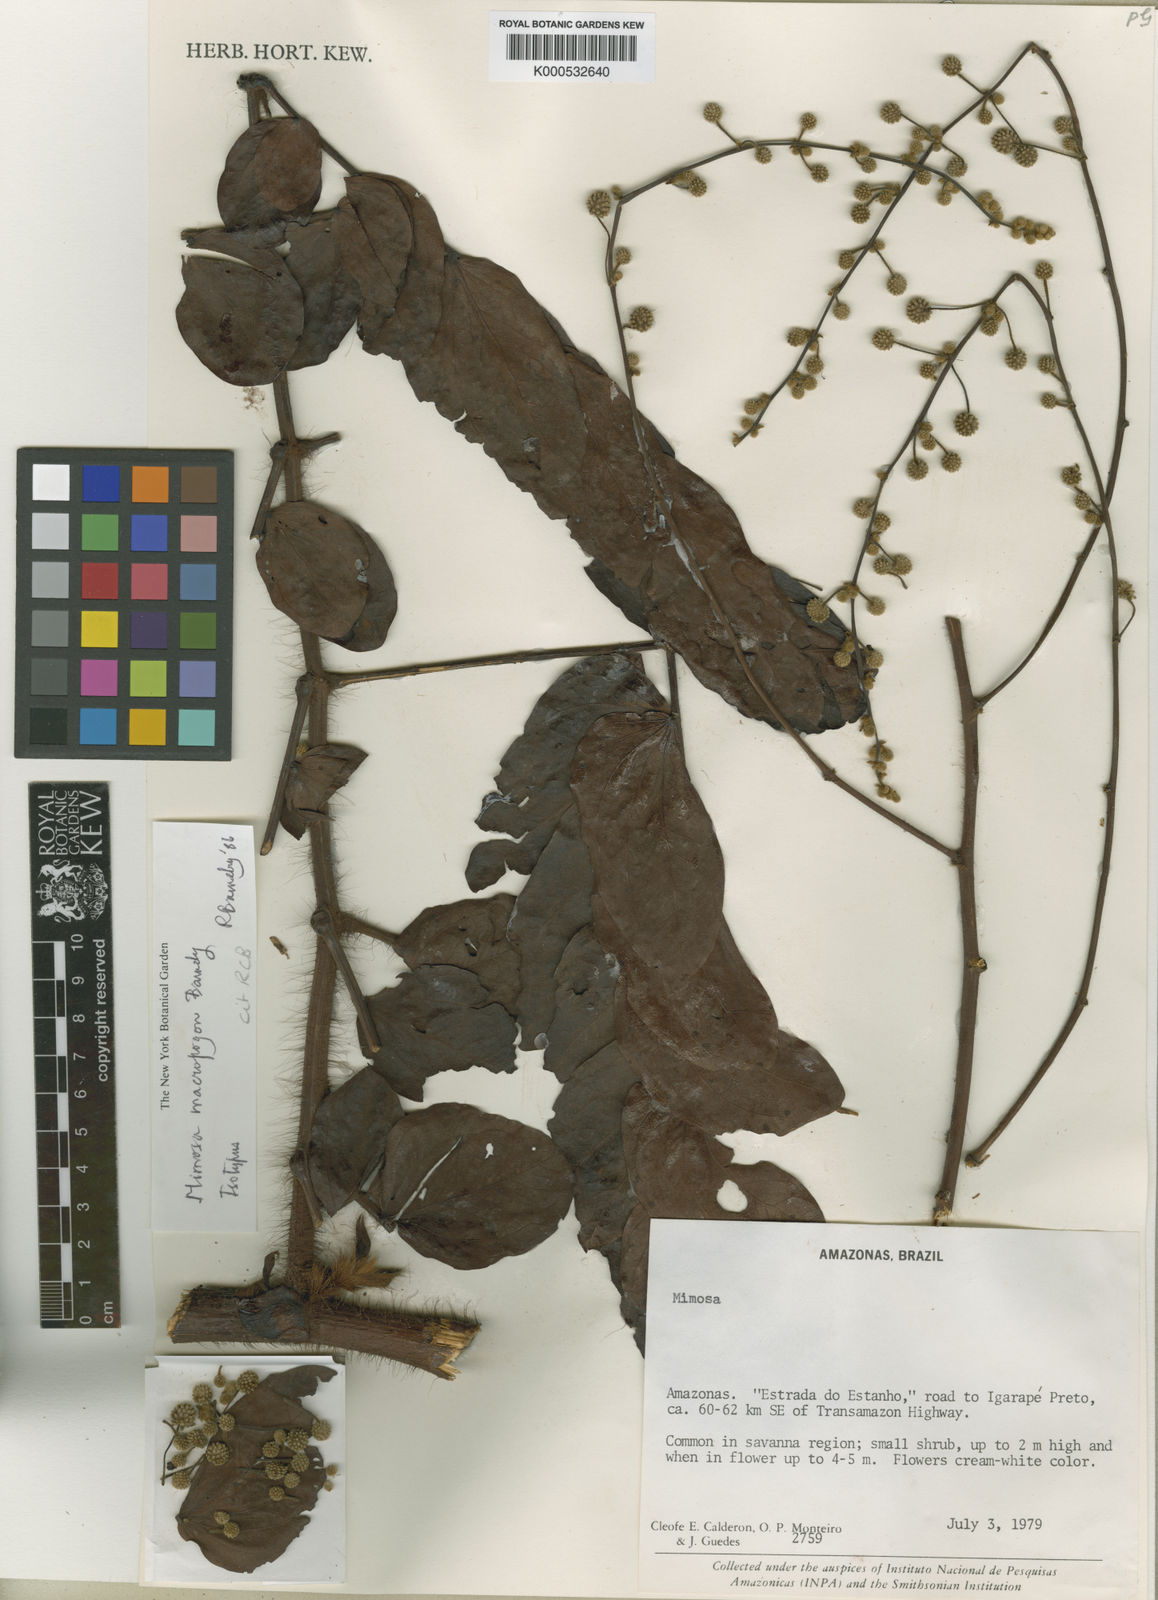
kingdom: Plantae
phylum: Tracheophyta
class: Magnoliopsida
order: Fabales
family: Fabaceae
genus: Mimosa
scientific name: Mimosa macropogon
